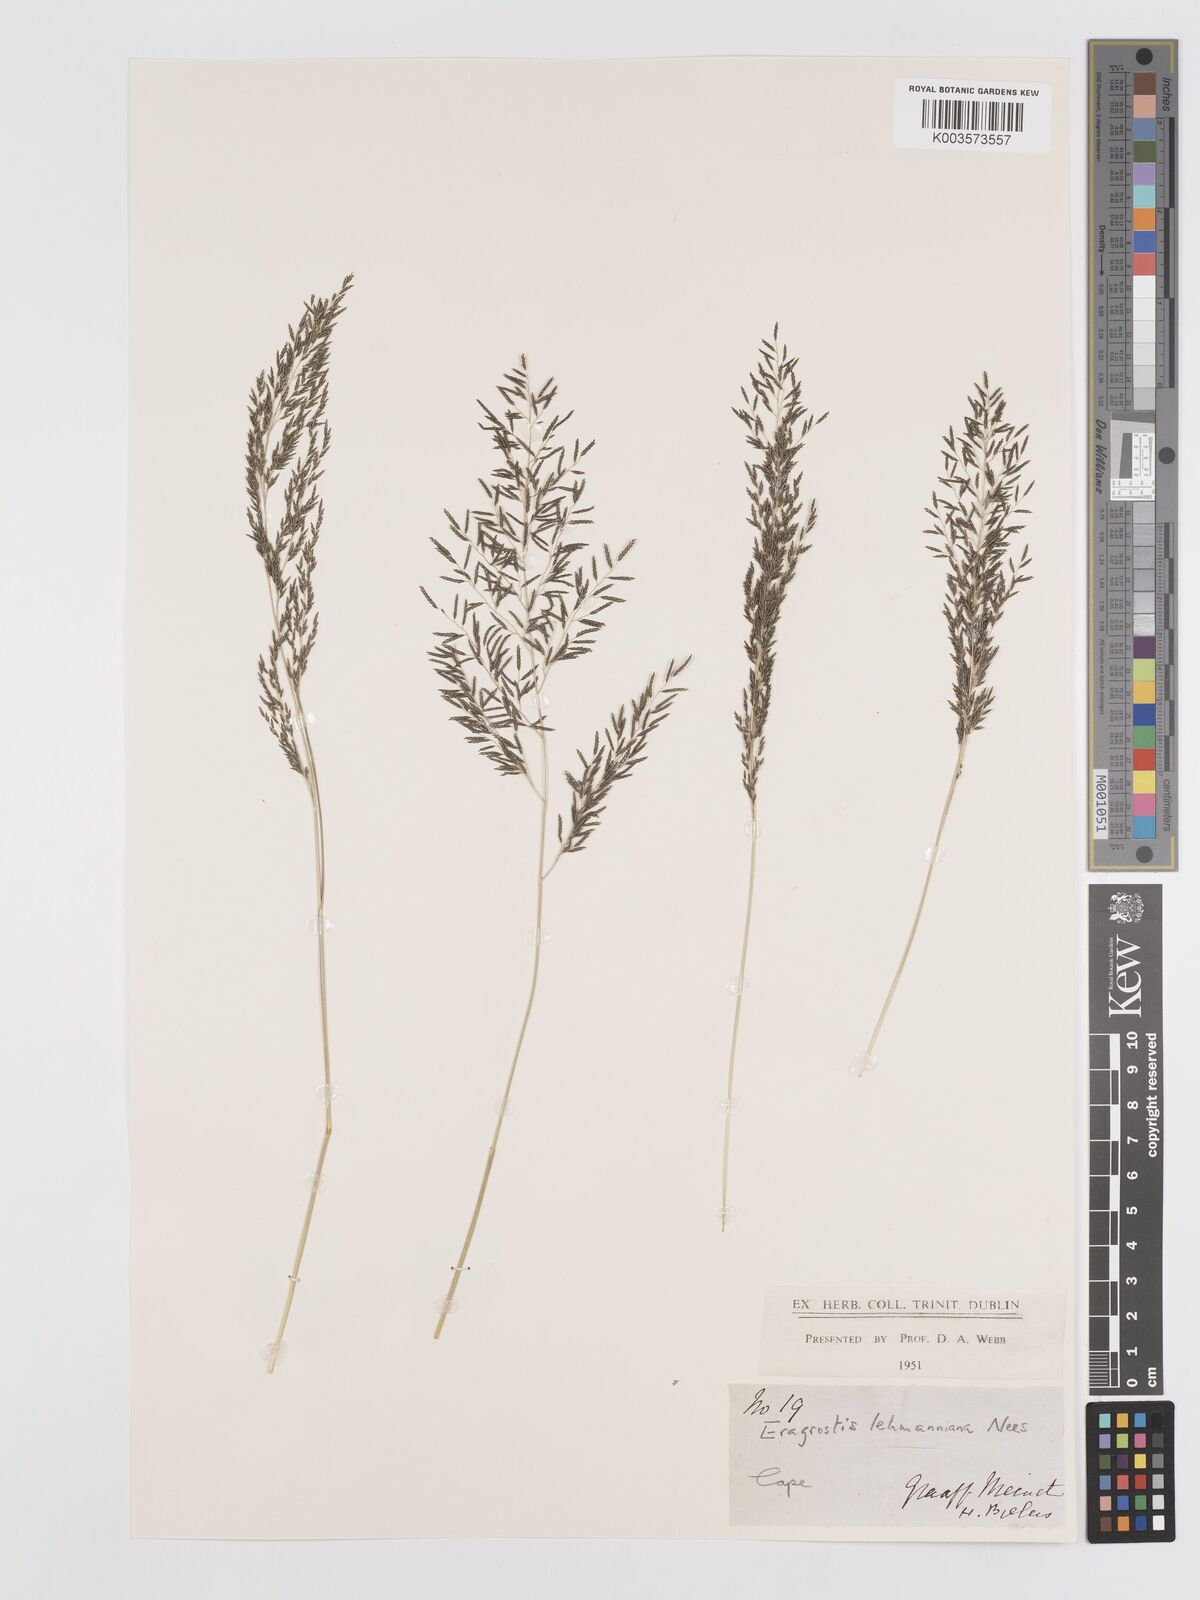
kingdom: Plantae
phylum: Tracheophyta
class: Liliopsida
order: Poales
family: Poaceae
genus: Eragrostis
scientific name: Eragrostis lehmanniana
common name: Lehmann lovegrass
